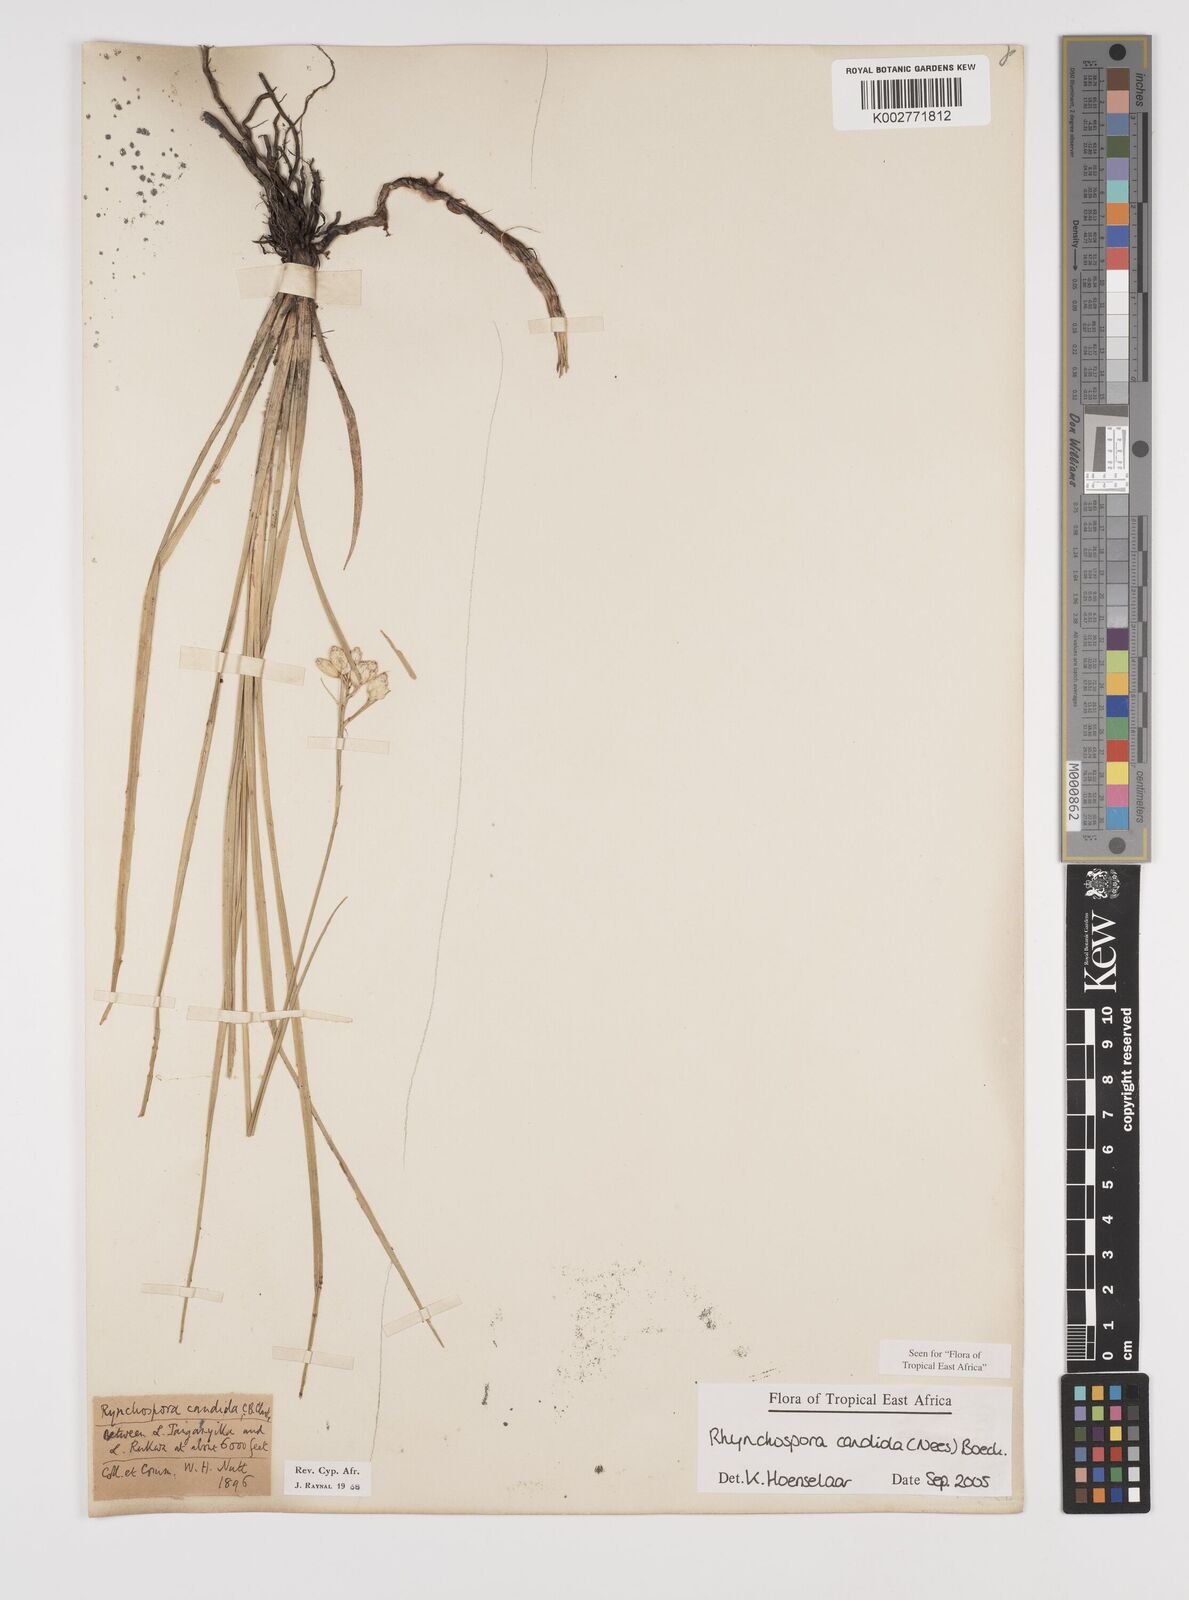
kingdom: Plantae
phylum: Tracheophyta
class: Liliopsida
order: Poales
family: Cyperaceae
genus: Rhynchospora
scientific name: Rhynchospora candida
